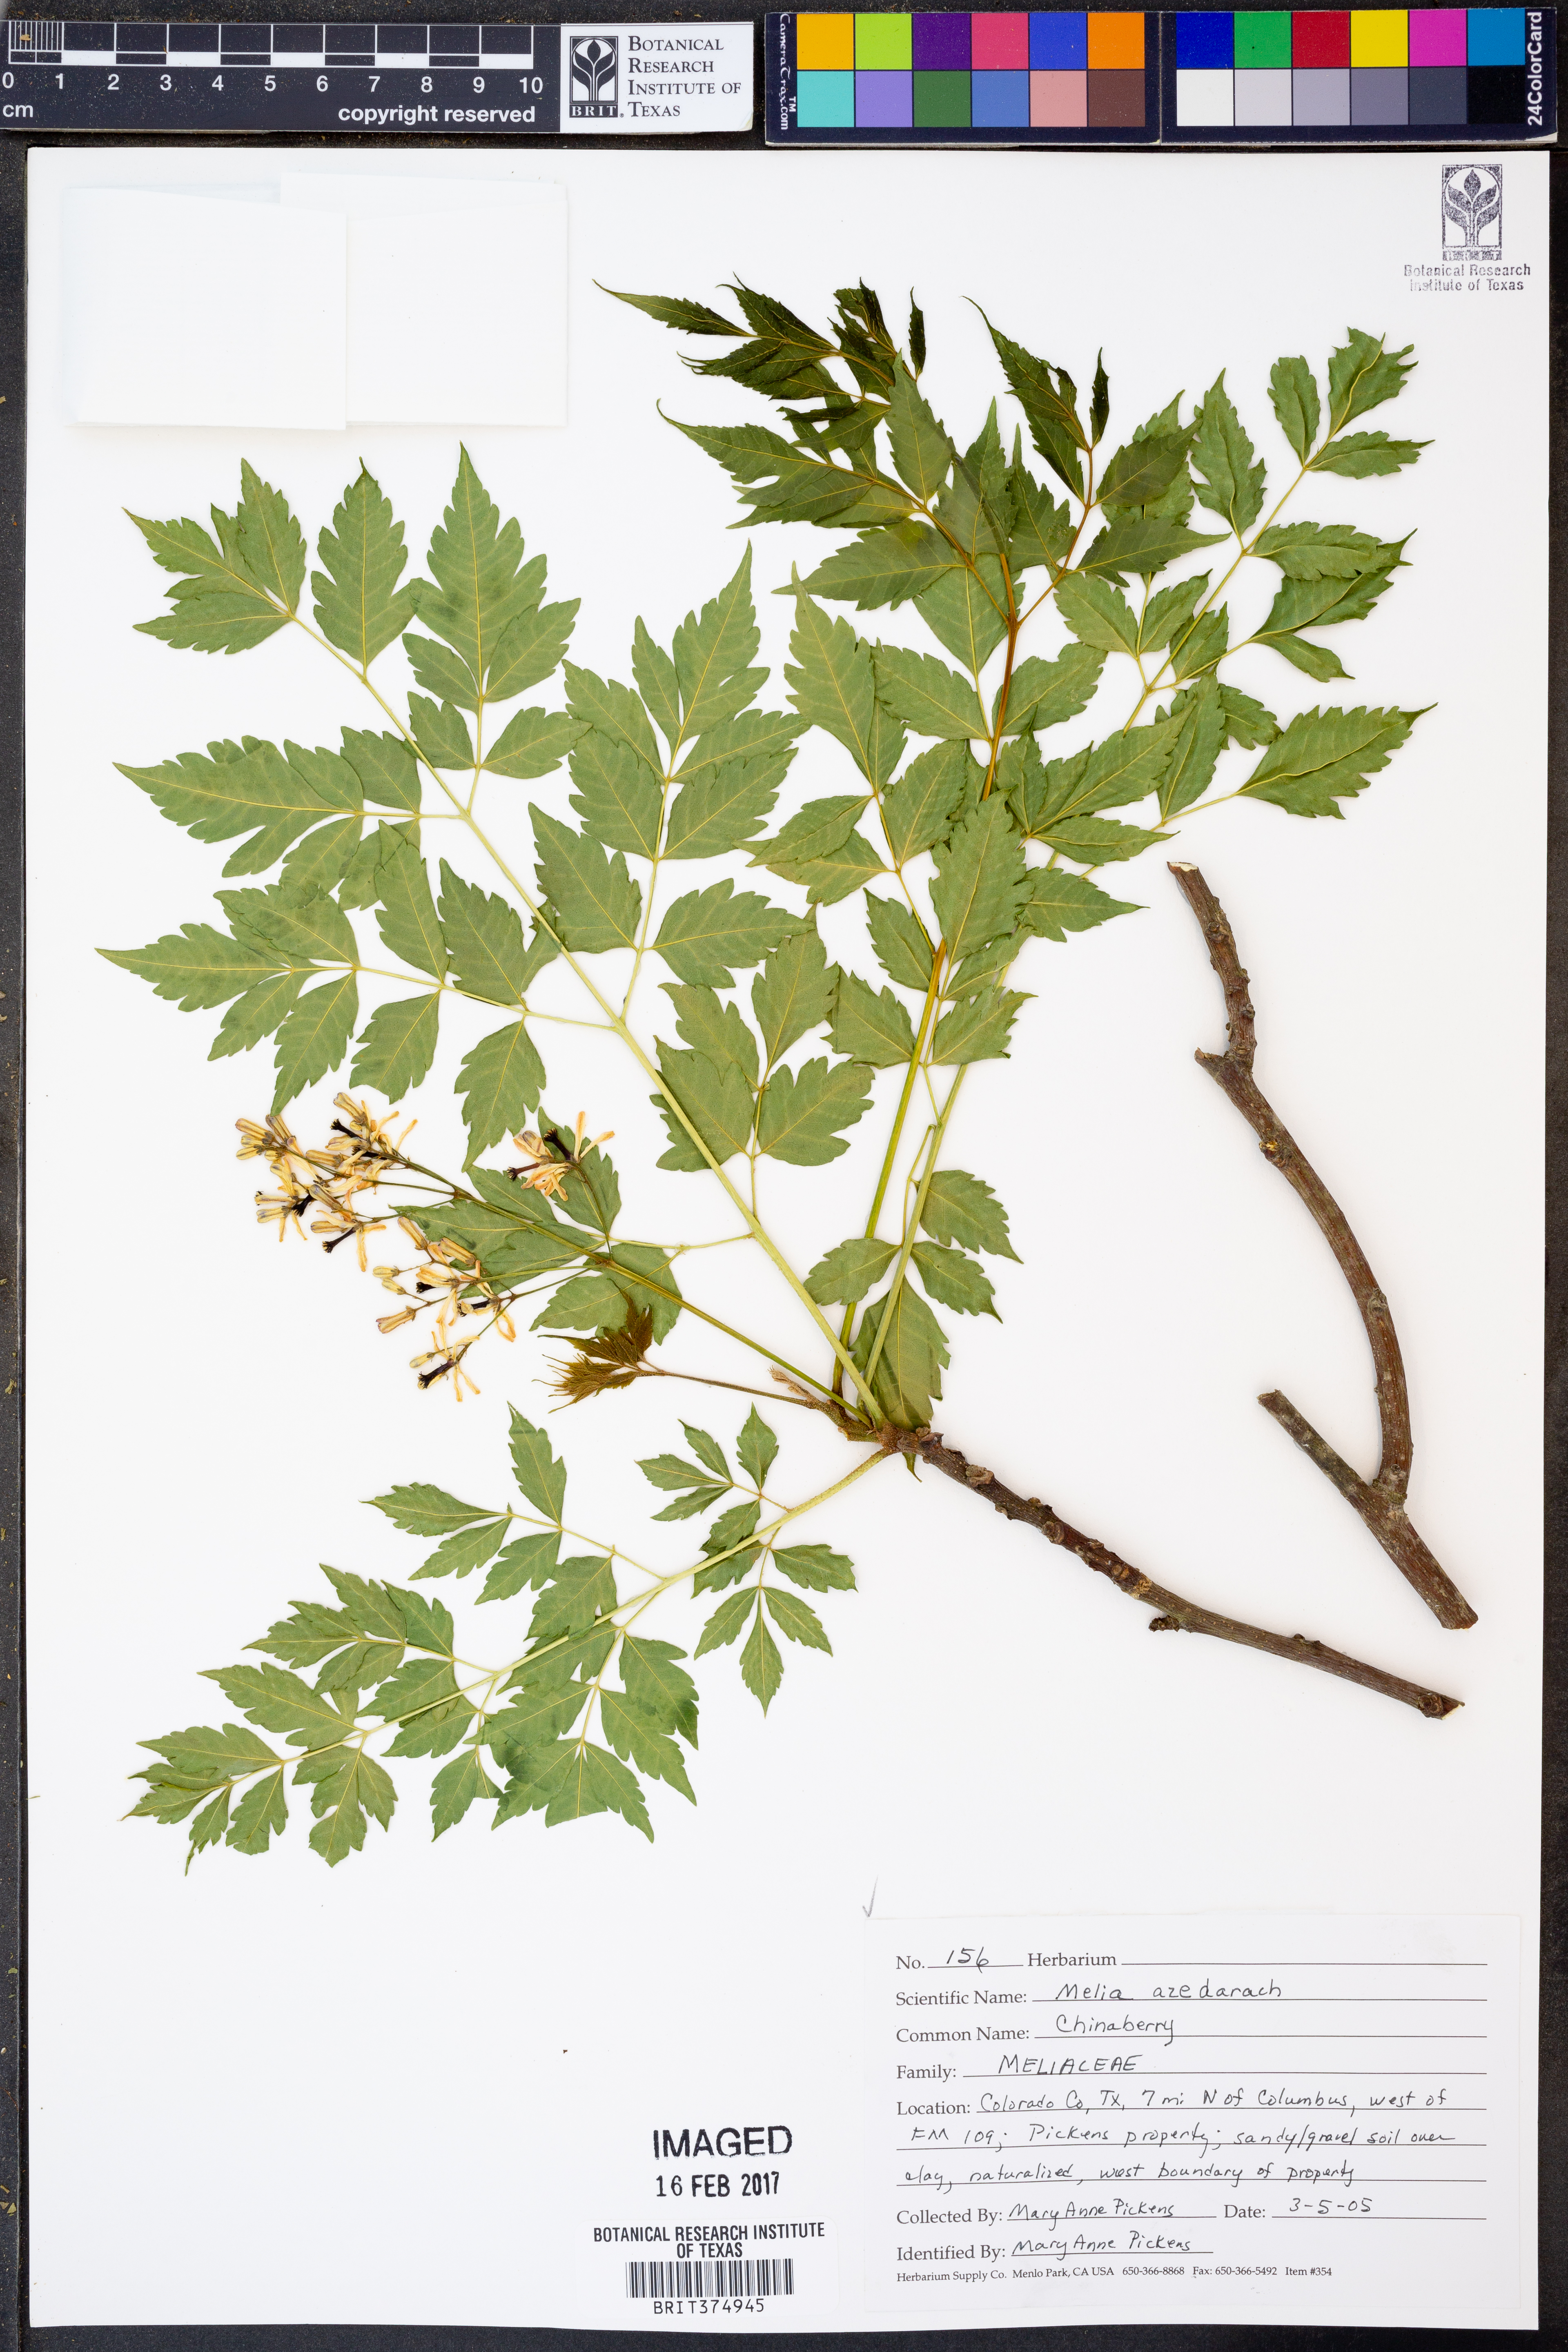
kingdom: Plantae
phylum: Tracheophyta
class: Magnoliopsida
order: Sapindales
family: Meliaceae
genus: Melia
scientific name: Melia azedarach
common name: Chinaberrytree
